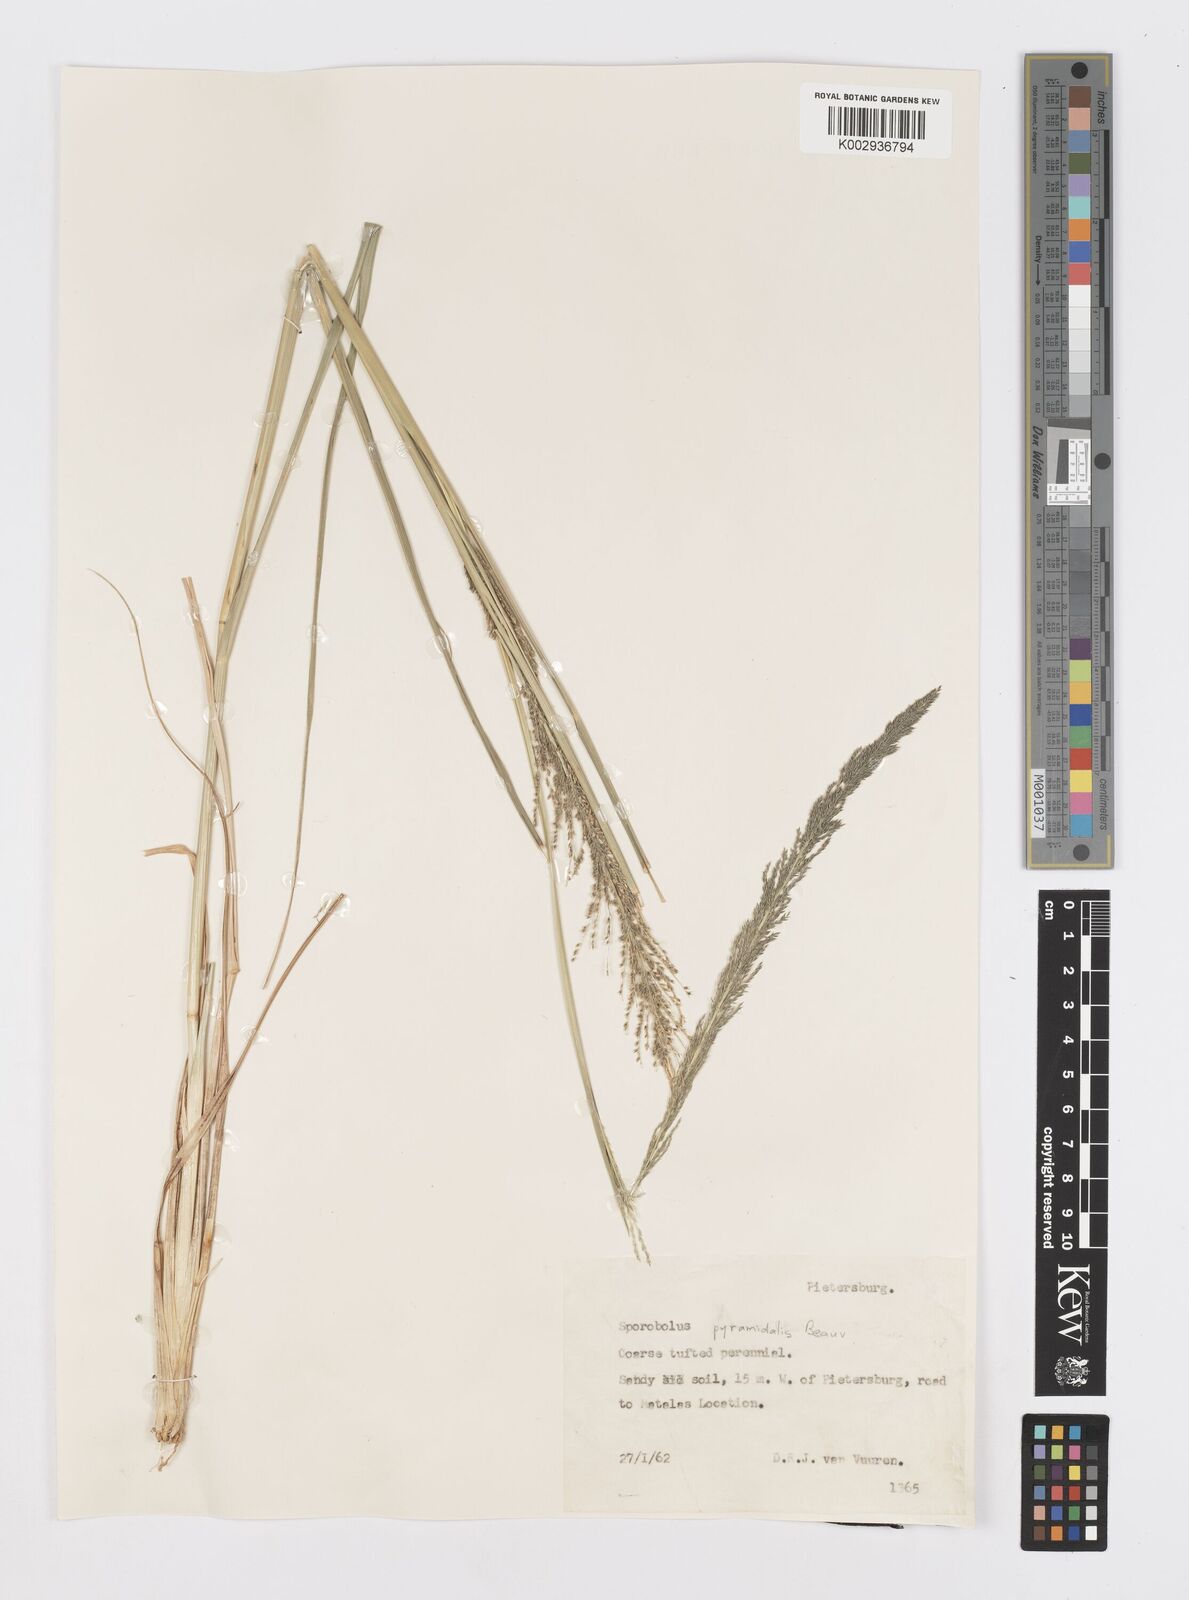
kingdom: Plantae
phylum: Tracheophyta
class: Liliopsida
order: Poales
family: Poaceae
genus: Sporobolus
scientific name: Sporobolus pyramidalis
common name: West indian dropseed
